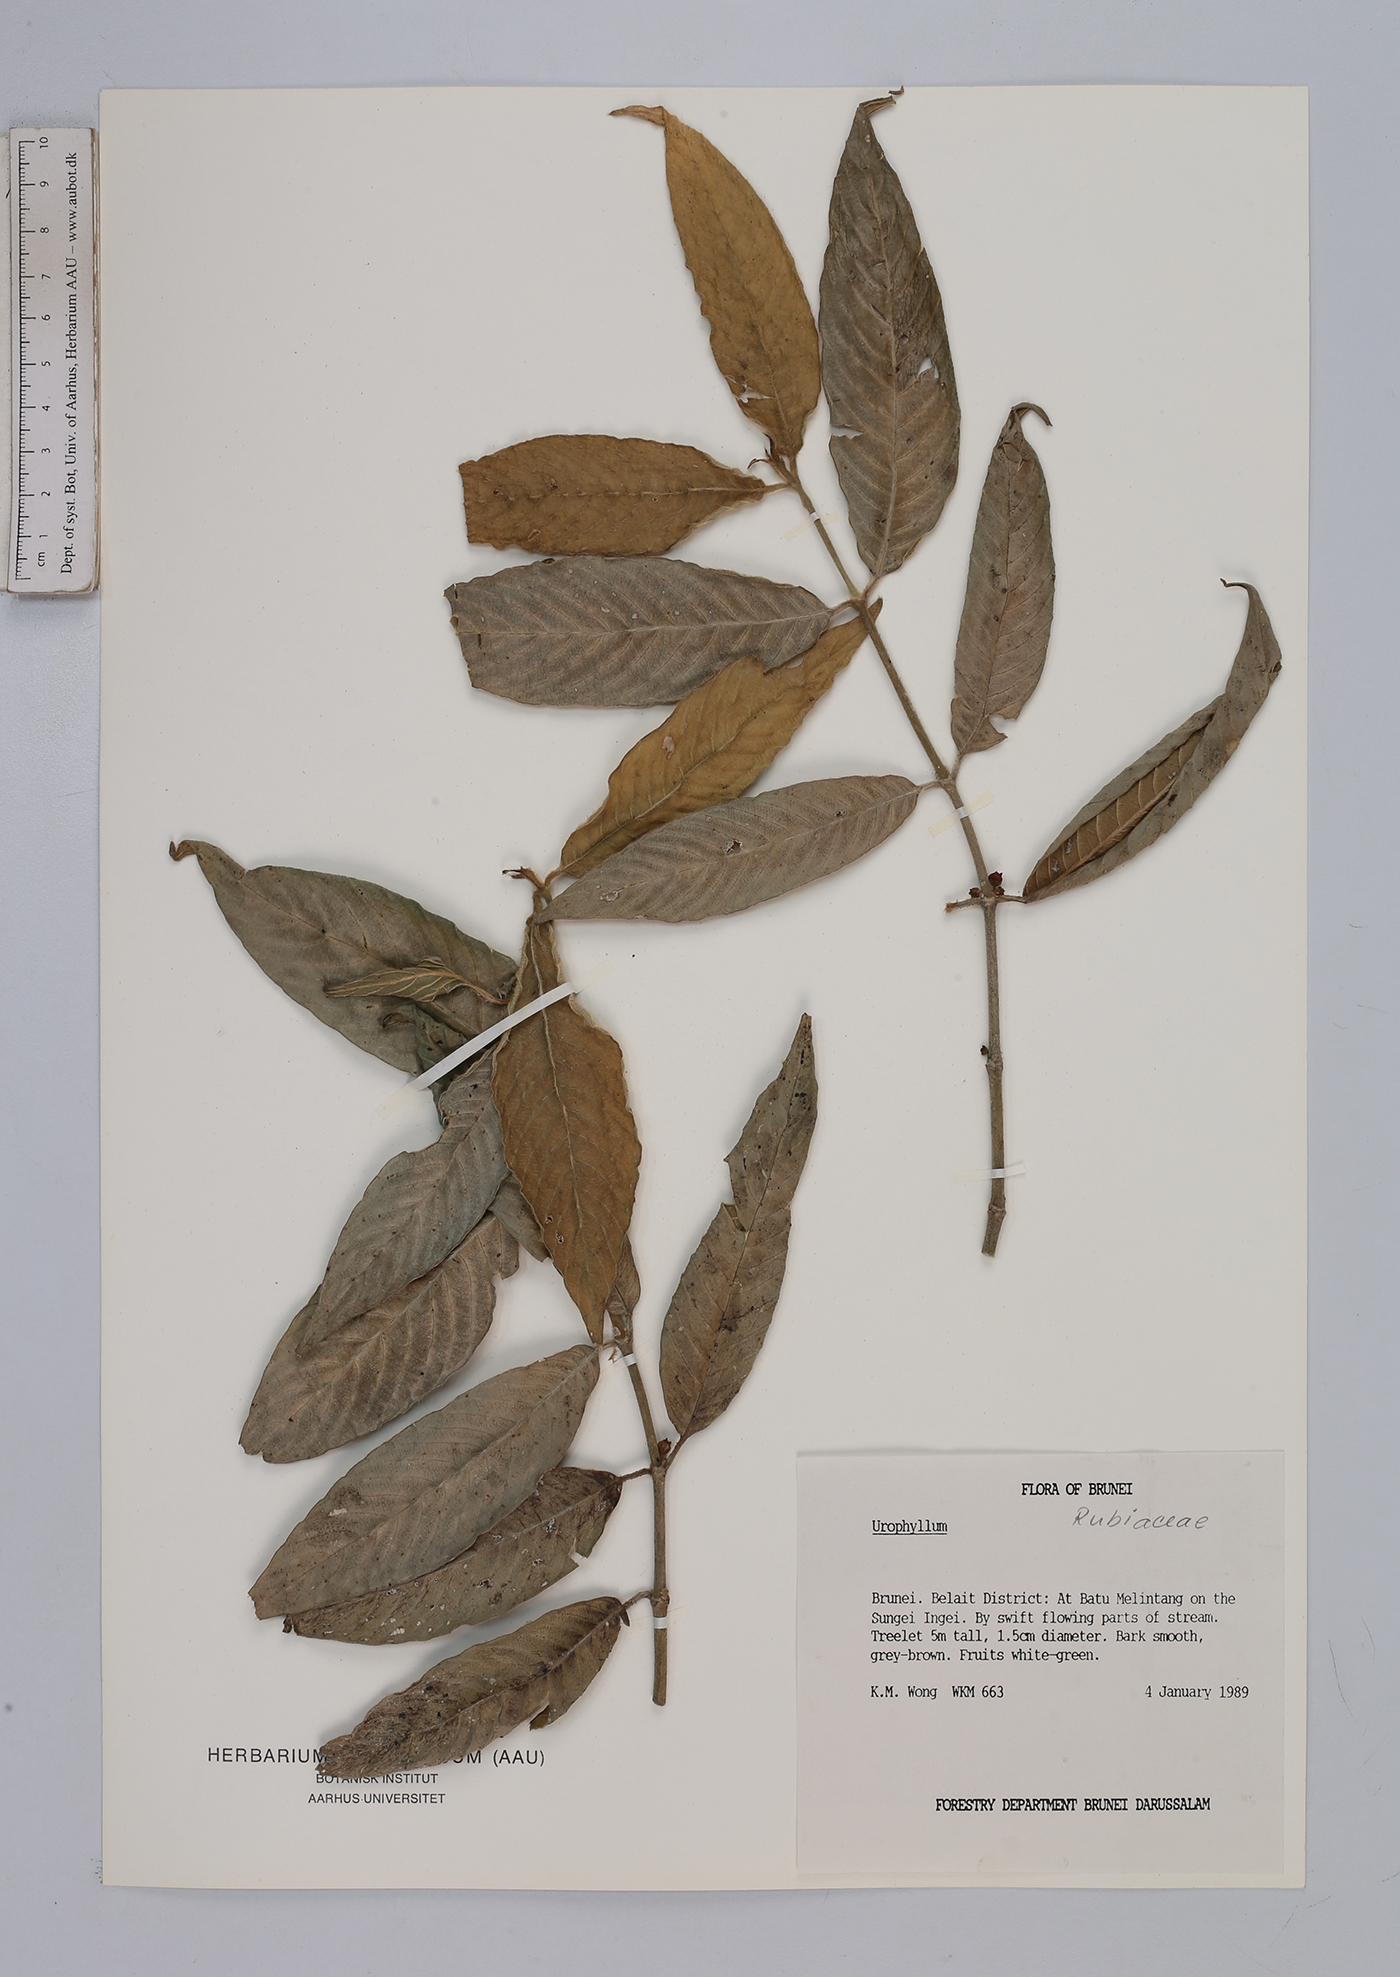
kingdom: Plantae
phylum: Tracheophyta
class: Magnoliopsida
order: Gentianales
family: Rubiaceae
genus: Urophyllum
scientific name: Urophyllum
